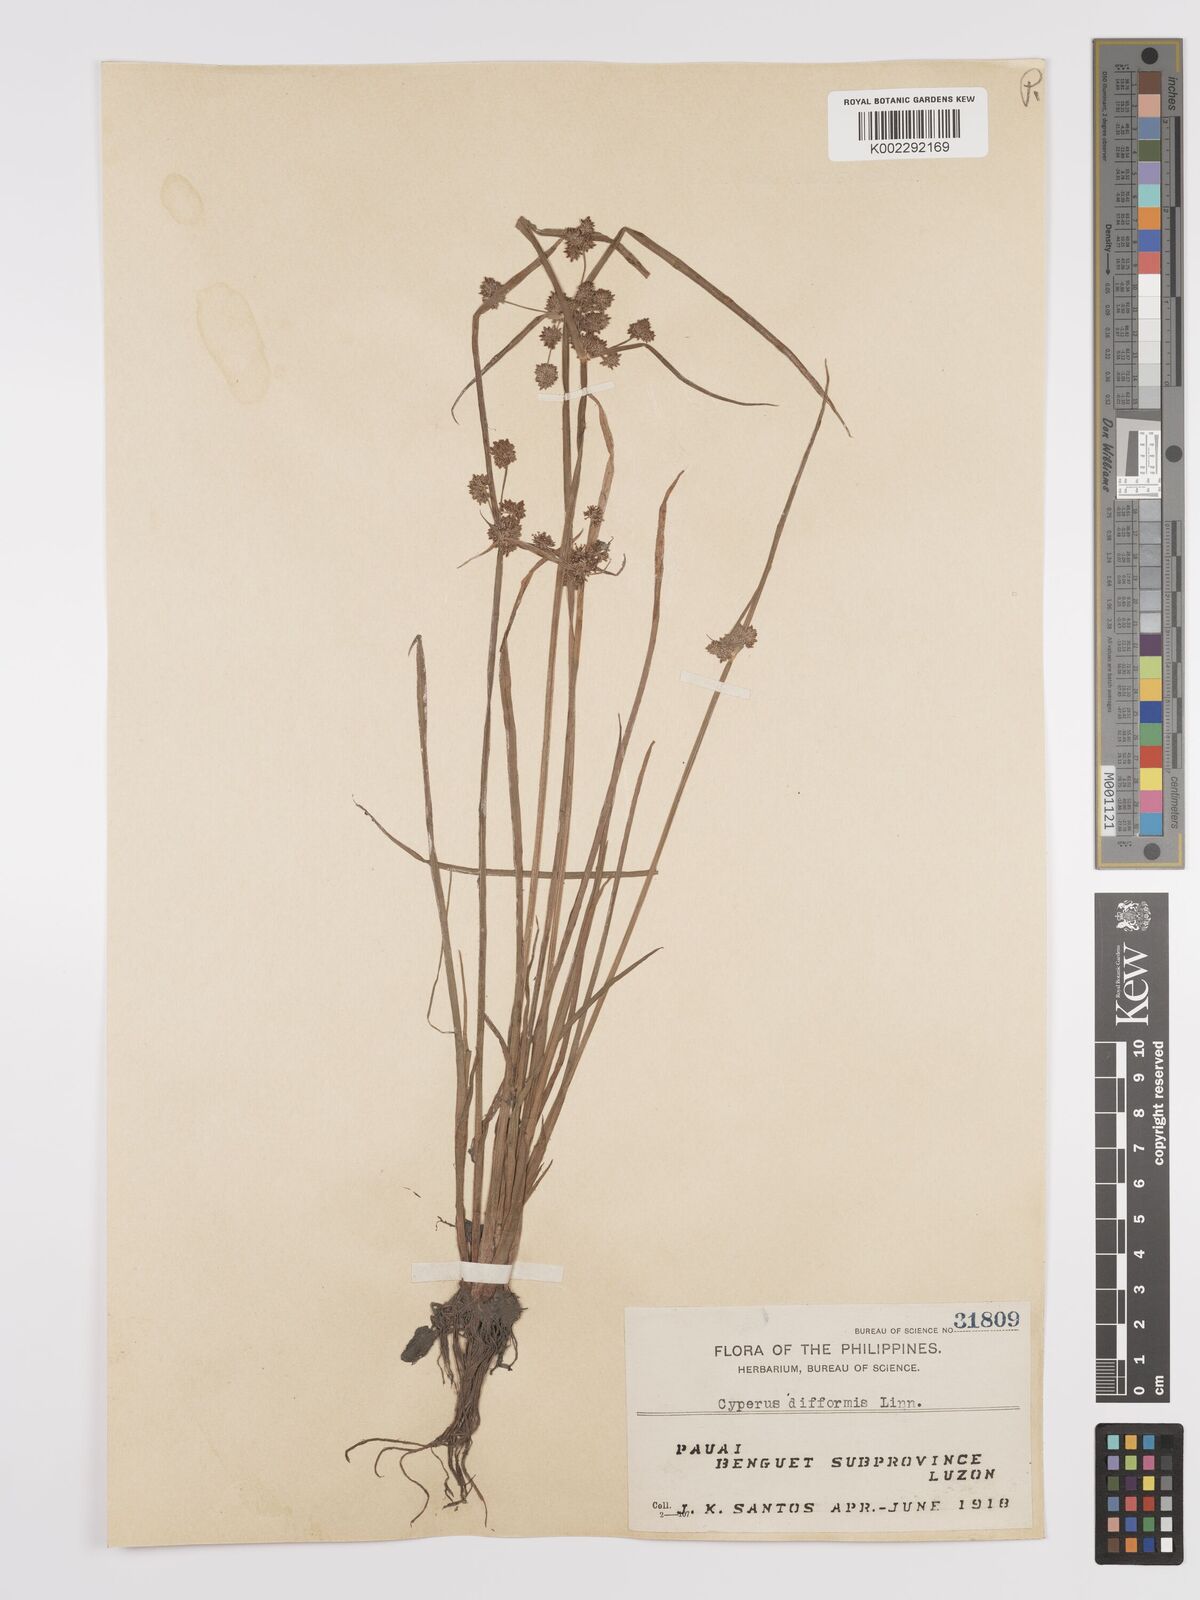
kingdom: Plantae
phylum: Tracheophyta
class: Liliopsida
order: Poales
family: Cyperaceae
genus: Cyperus
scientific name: Cyperus difformis
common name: Variable flatsedge
